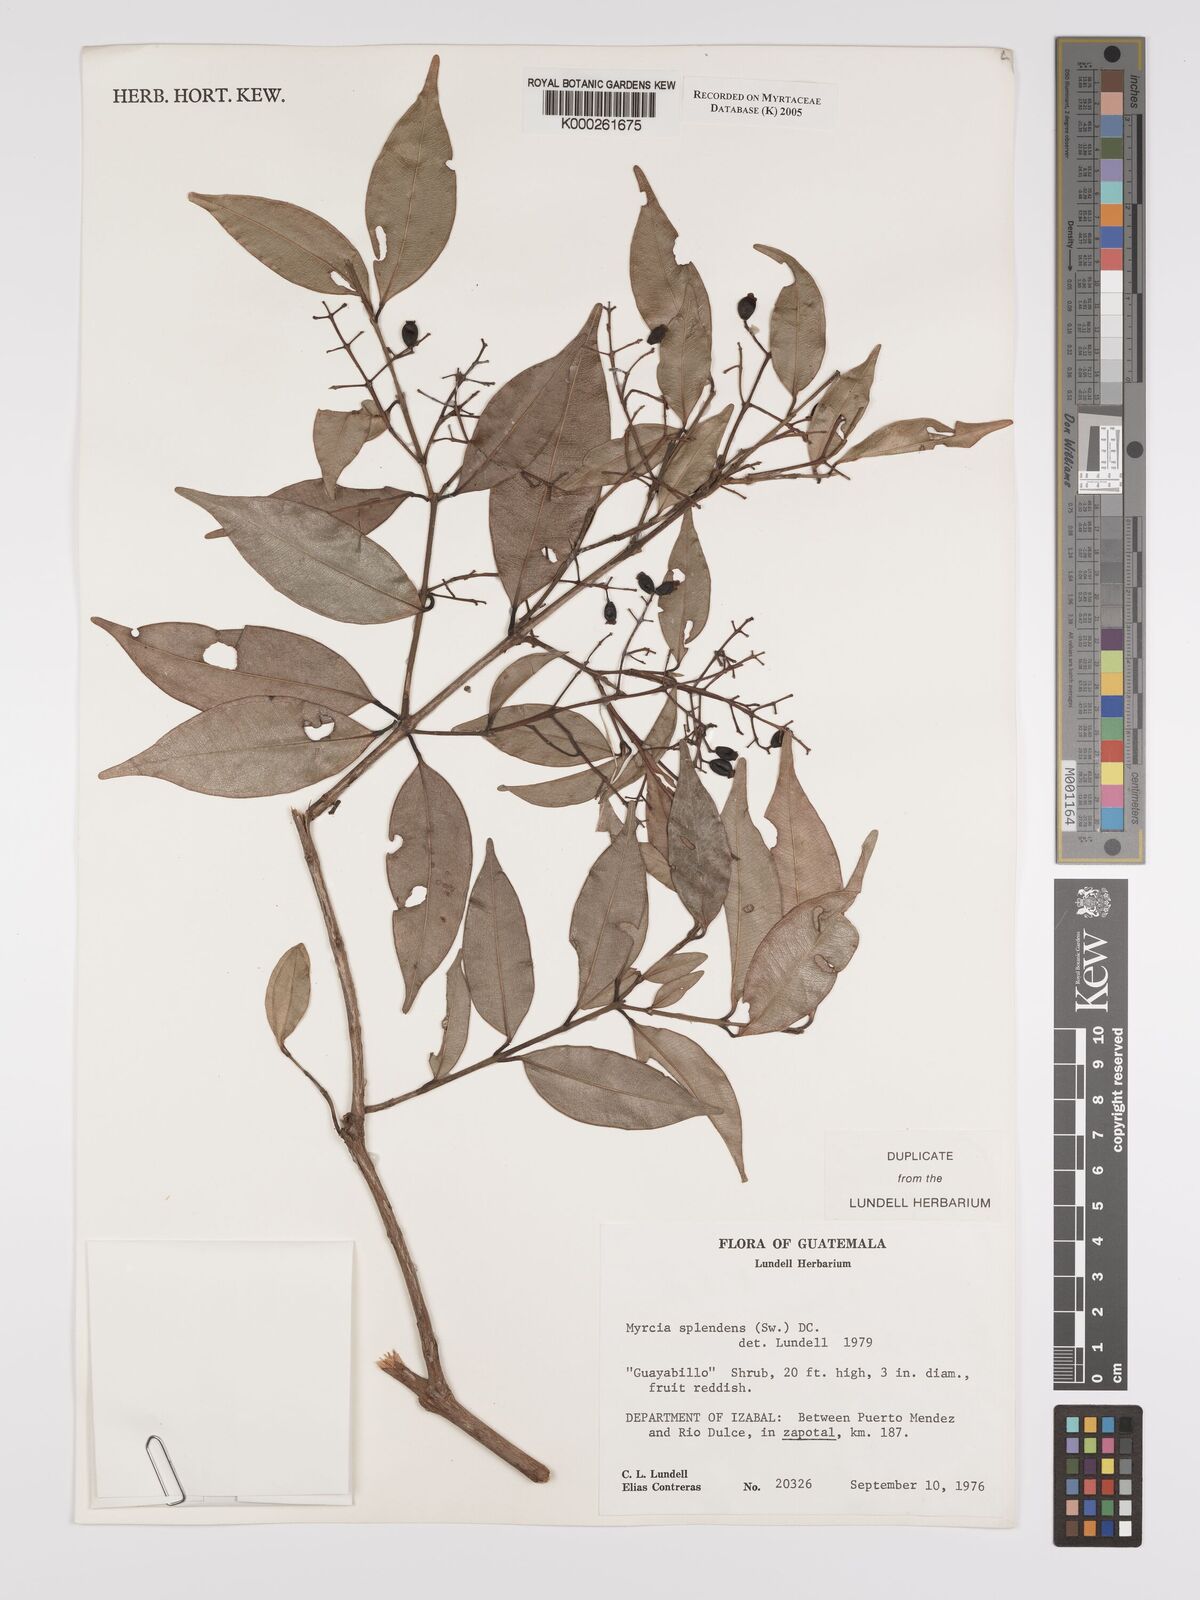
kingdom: Plantae
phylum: Tracheophyta
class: Magnoliopsida
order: Myrtales
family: Myrtaceae
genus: Myrcia
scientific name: Myrcia splendens
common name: Surinam cherry
